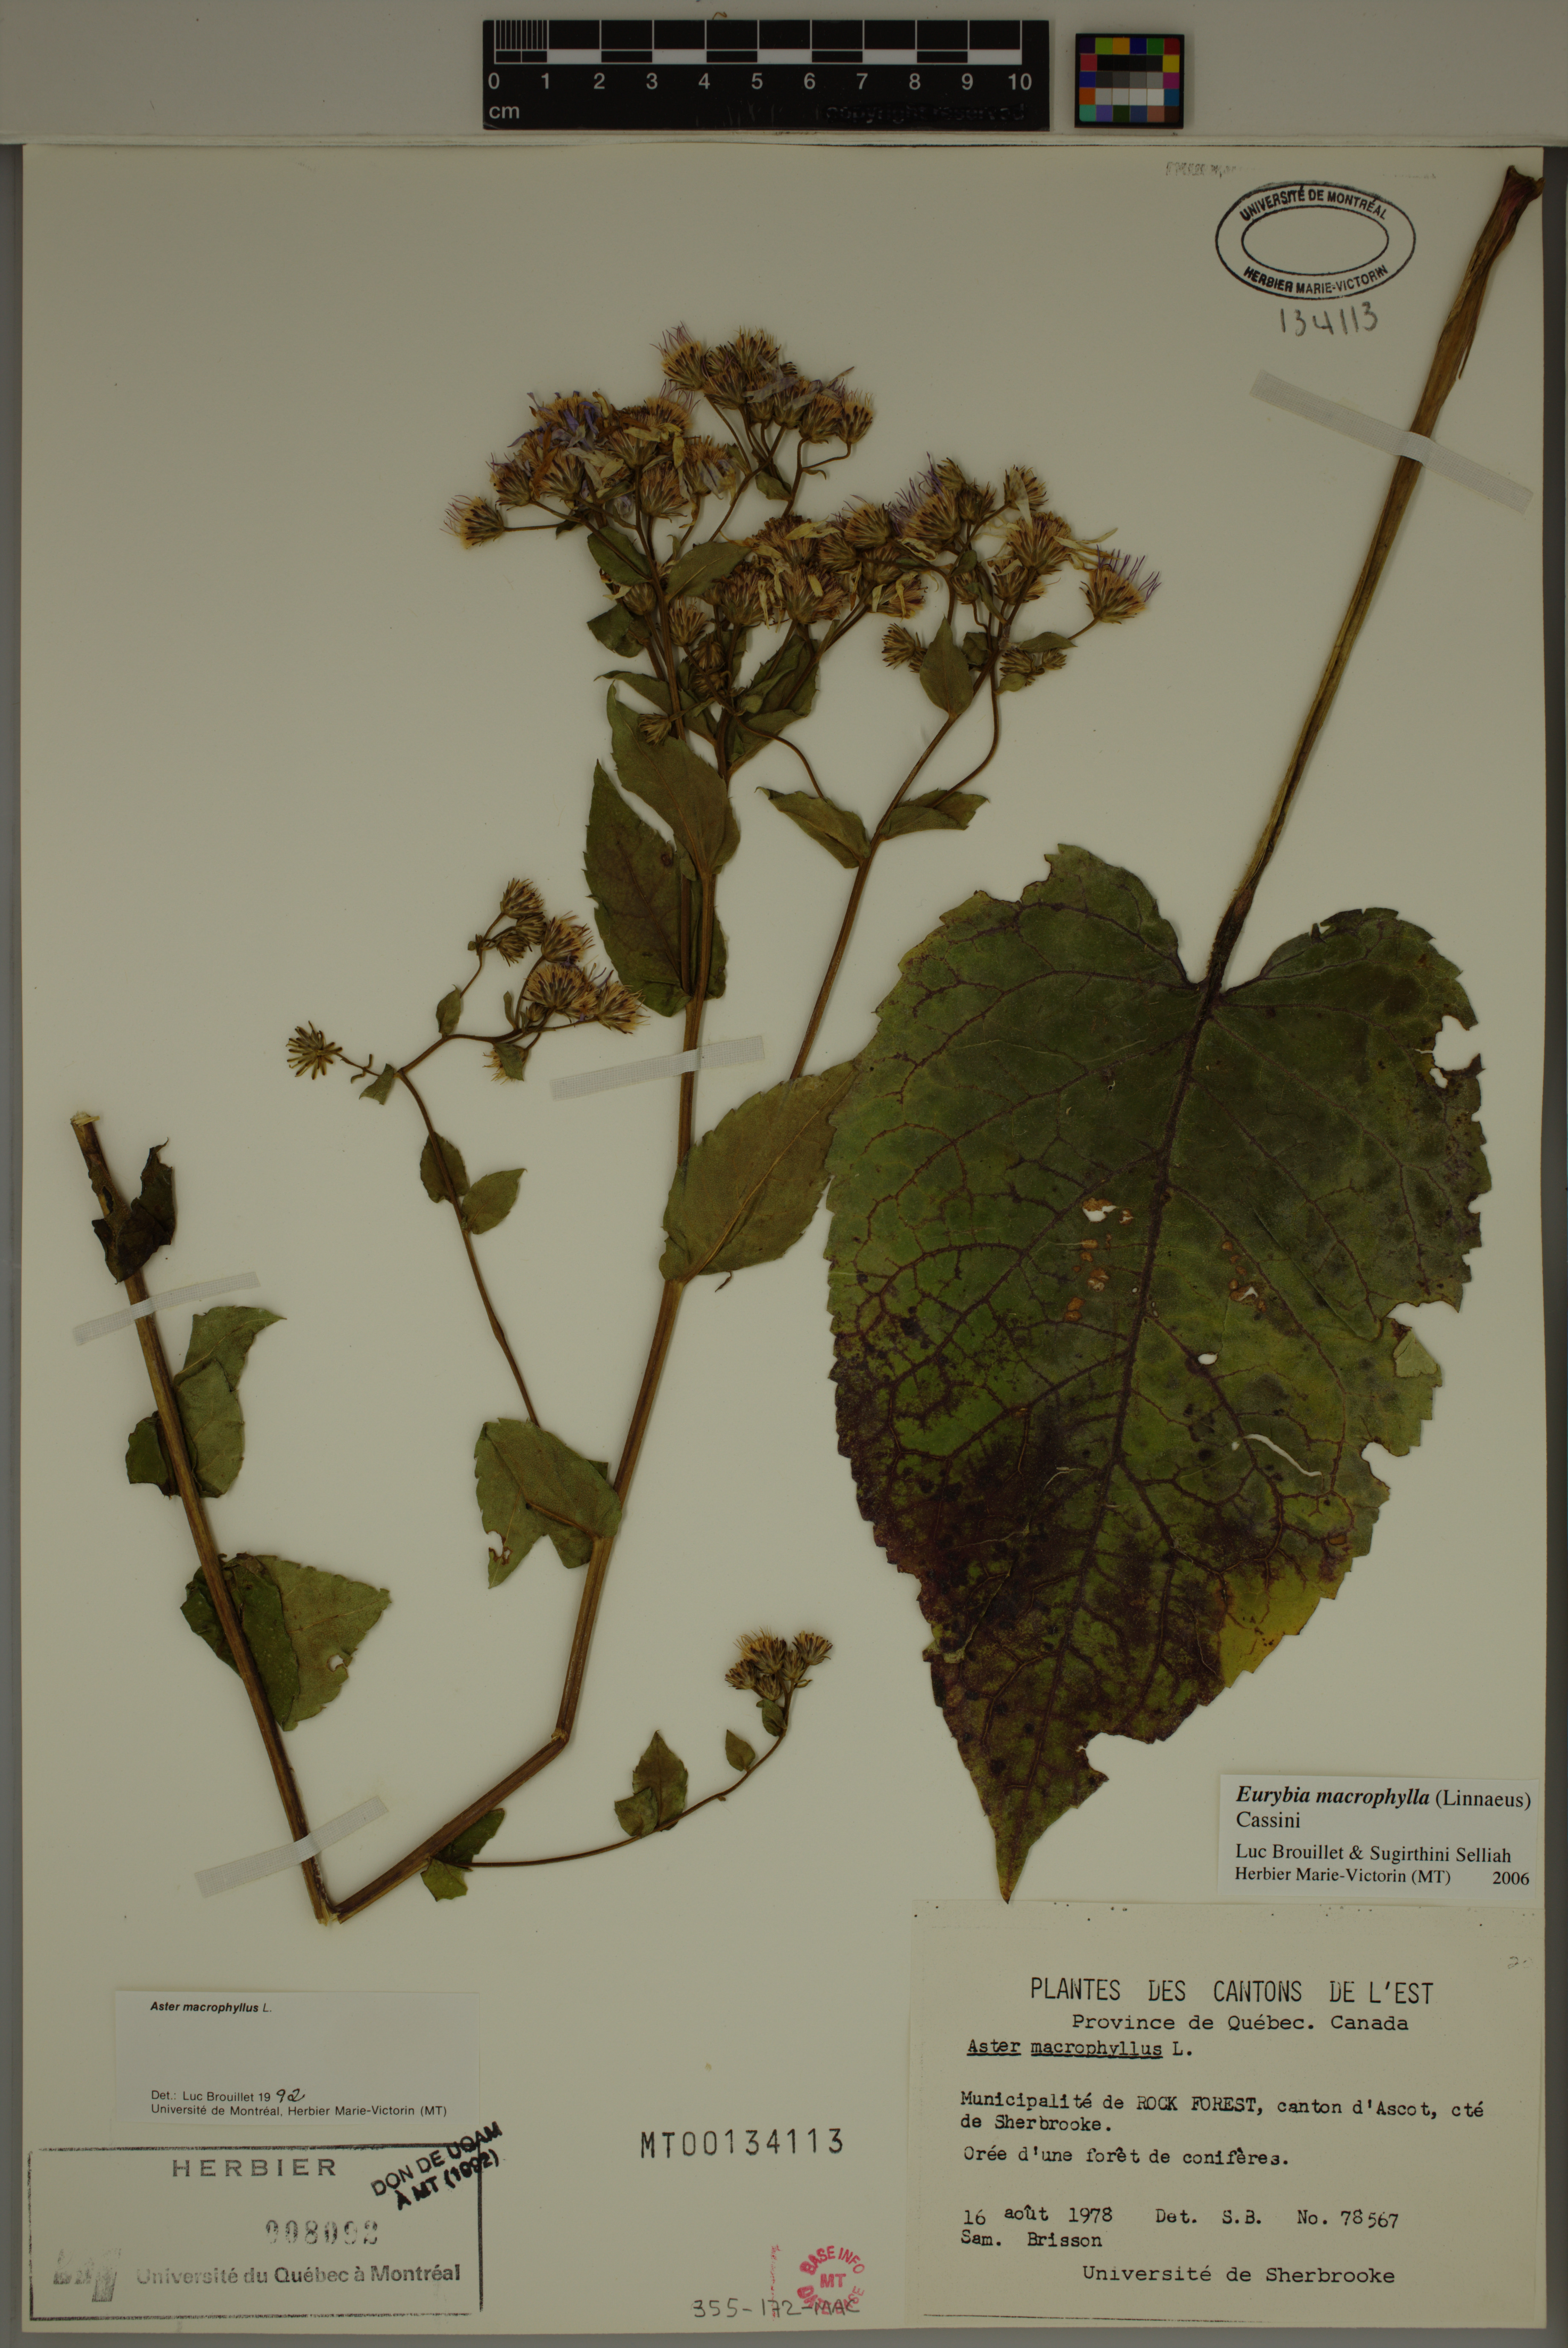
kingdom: Plantae
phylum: Tracheophyta
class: Magnoliopsida
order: Asterales
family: Asteraceae
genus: Eurybia
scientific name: Eurybia macrophylla
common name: Big-leaved aster
